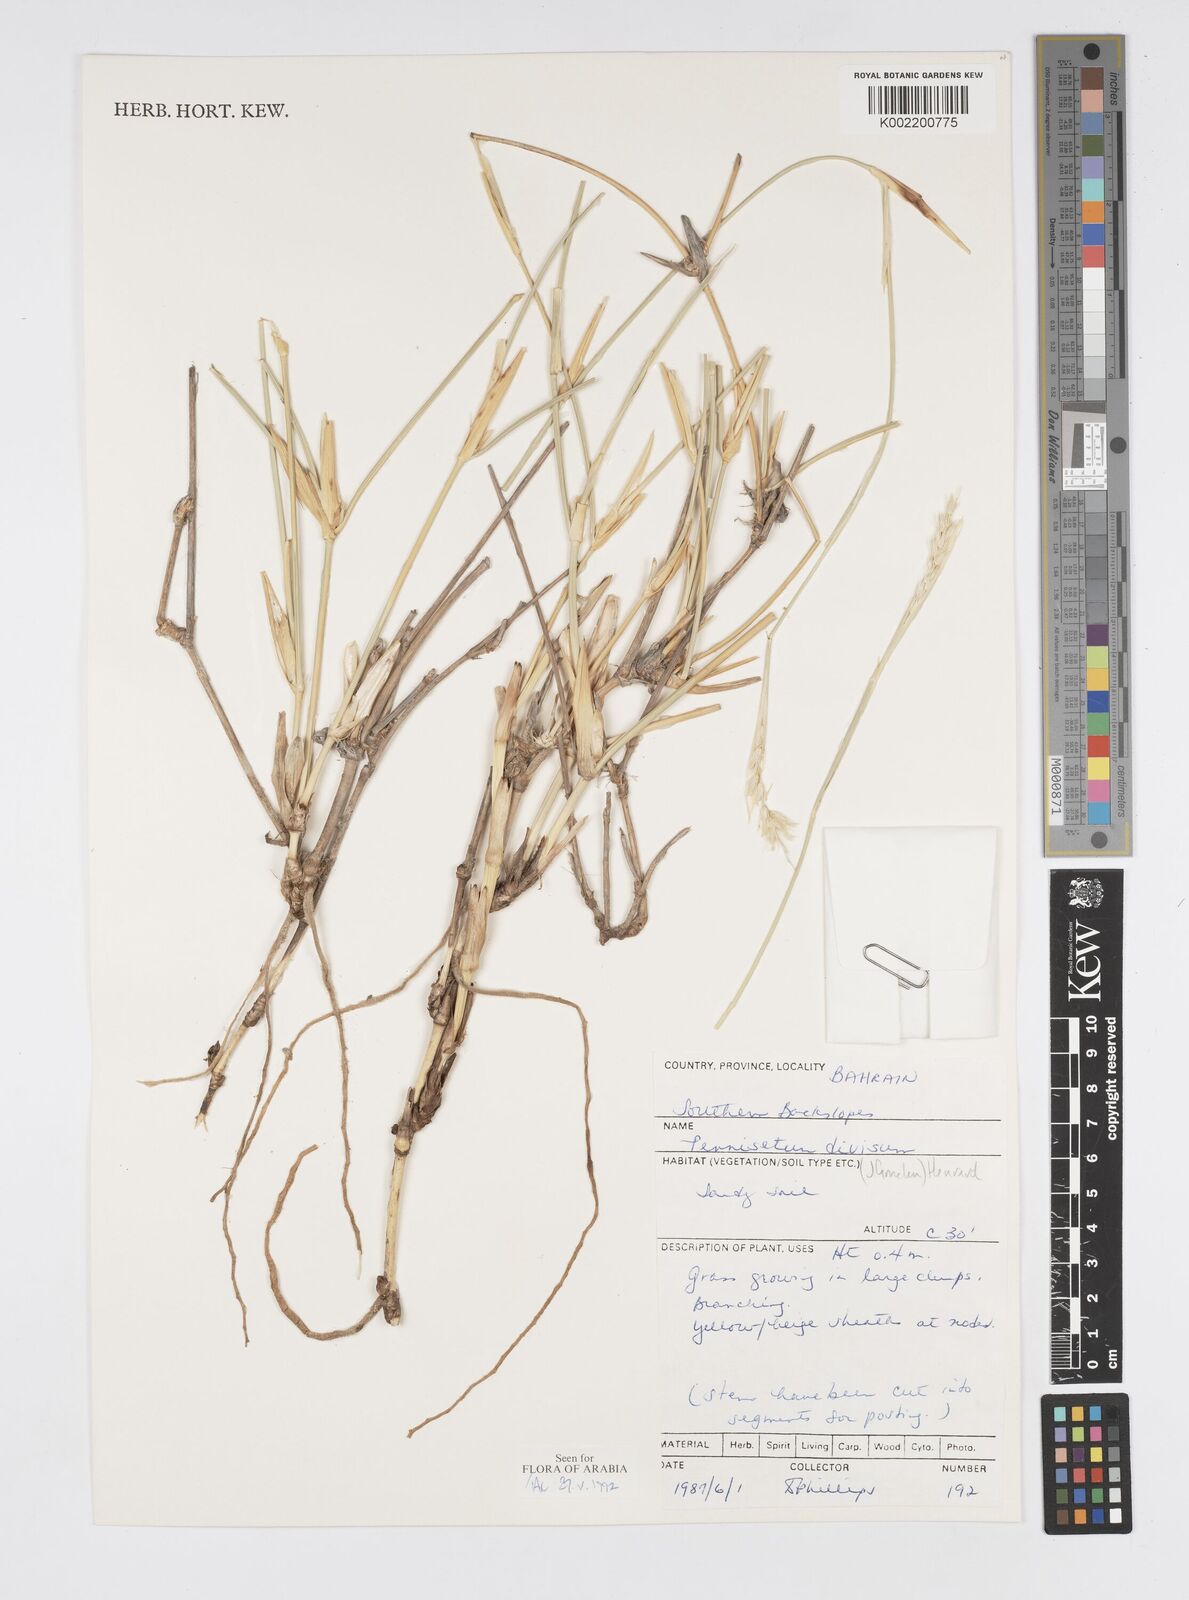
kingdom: Plantae
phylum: Tracheophyta
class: Liliopsida
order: Poales
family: Poaceae
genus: Cenchrus
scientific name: Cenchrus divisus
